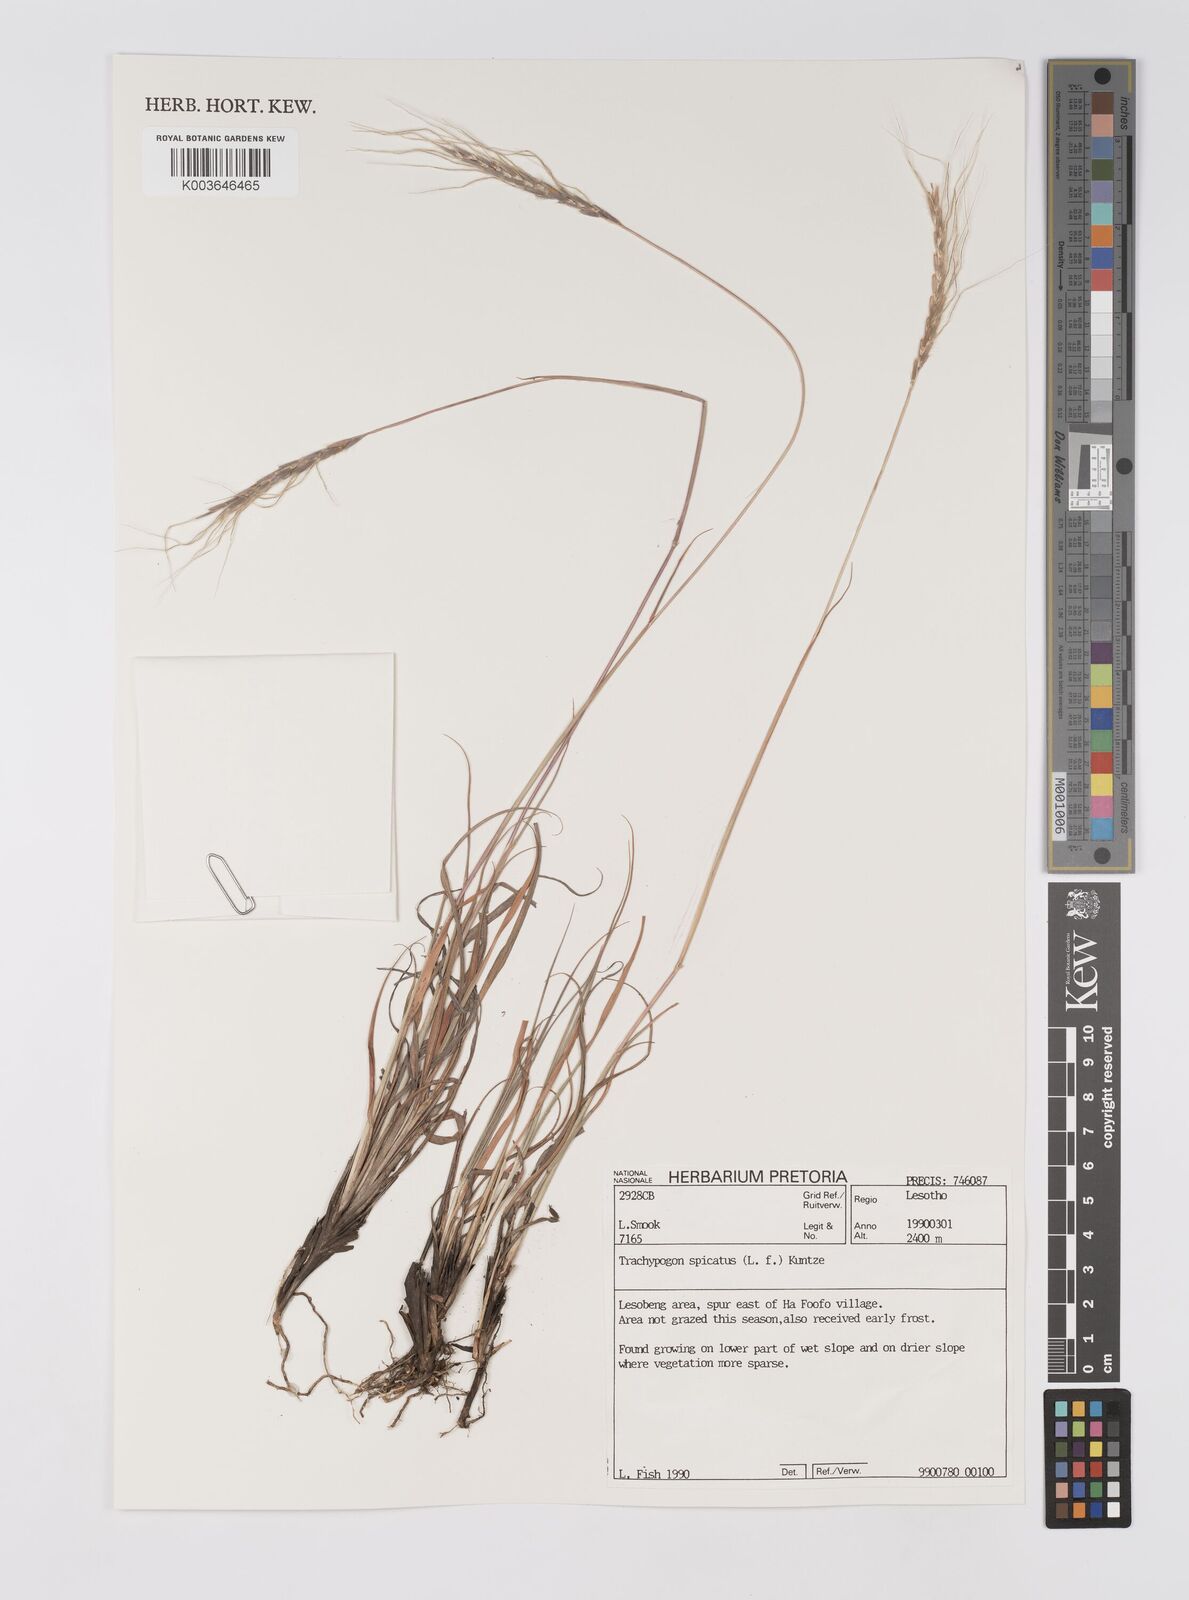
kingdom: Plantae
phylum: Tracheophyta
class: Liliopsida
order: Poales
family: Poaceae
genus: Trachypogon
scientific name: Trachypogon spicatus
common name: Crinkle-awn
